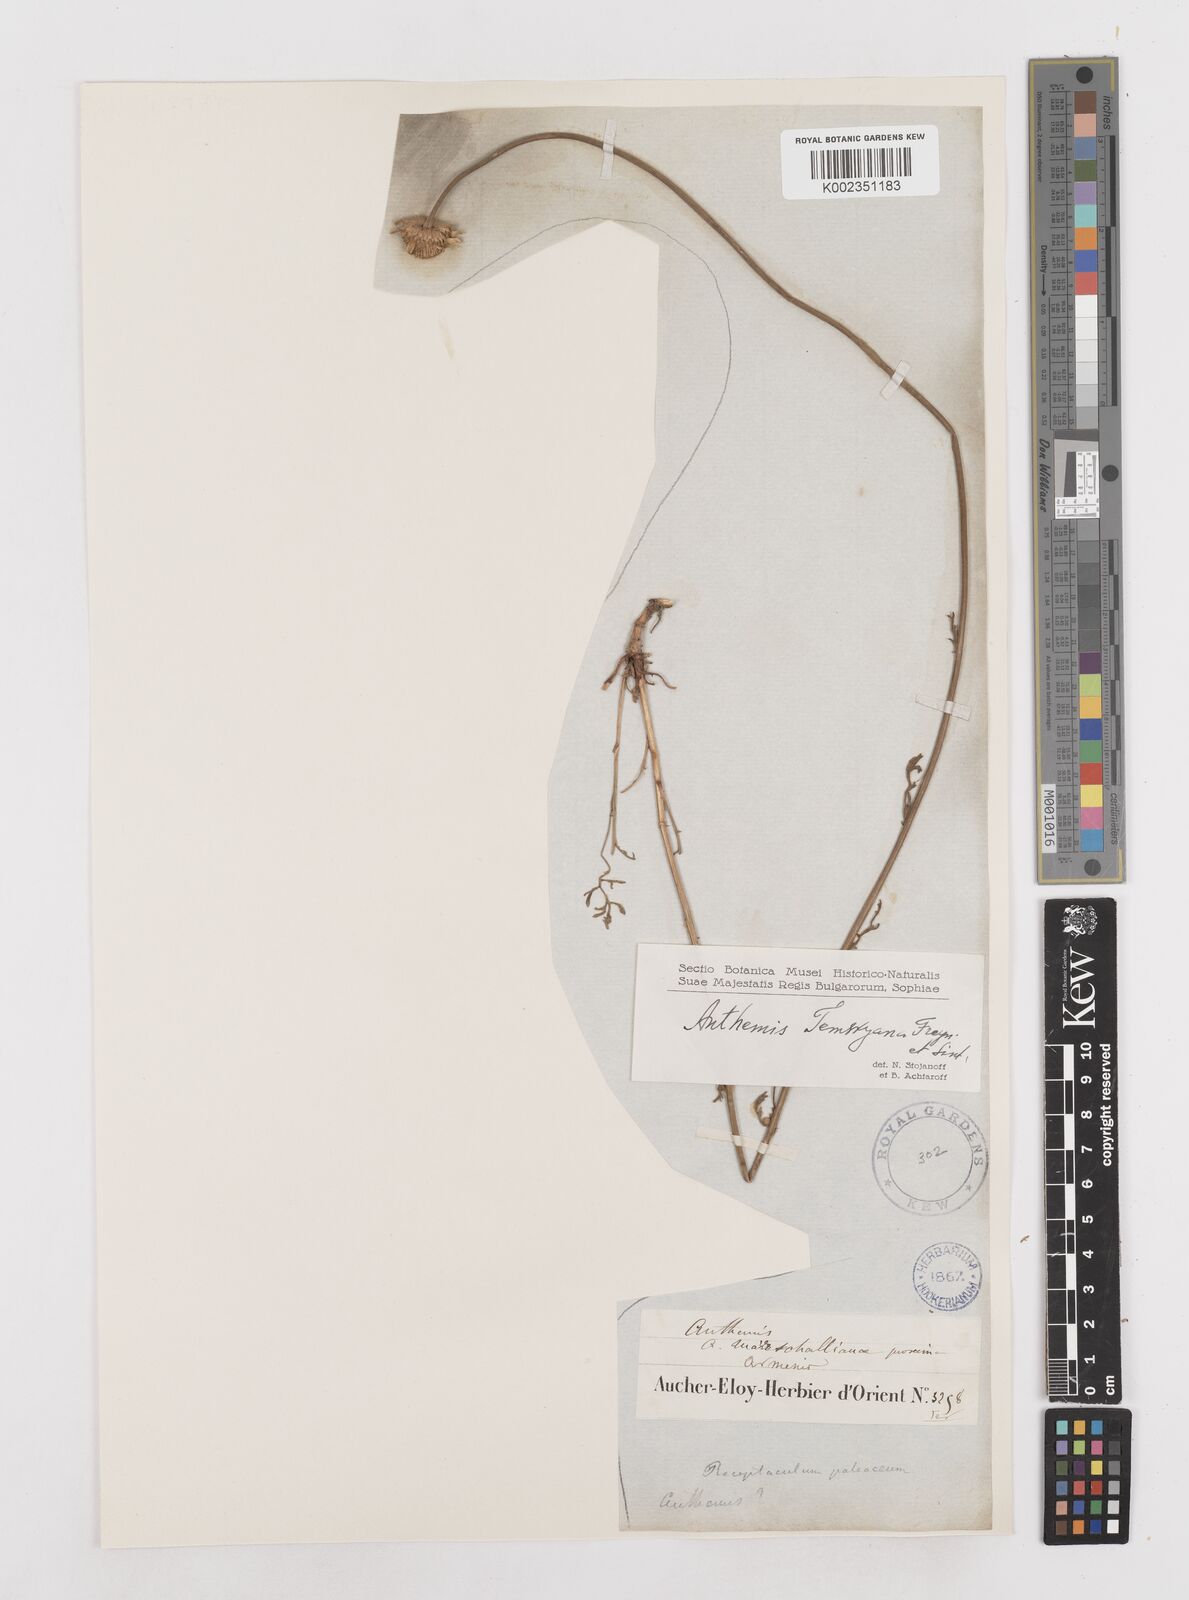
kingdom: Plantae
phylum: Tracheophyta
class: Magnoliopsida
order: Asterales
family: Asteraceae
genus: Anthemis
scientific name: Anthemis cretica
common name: Mountain dog-daisy
